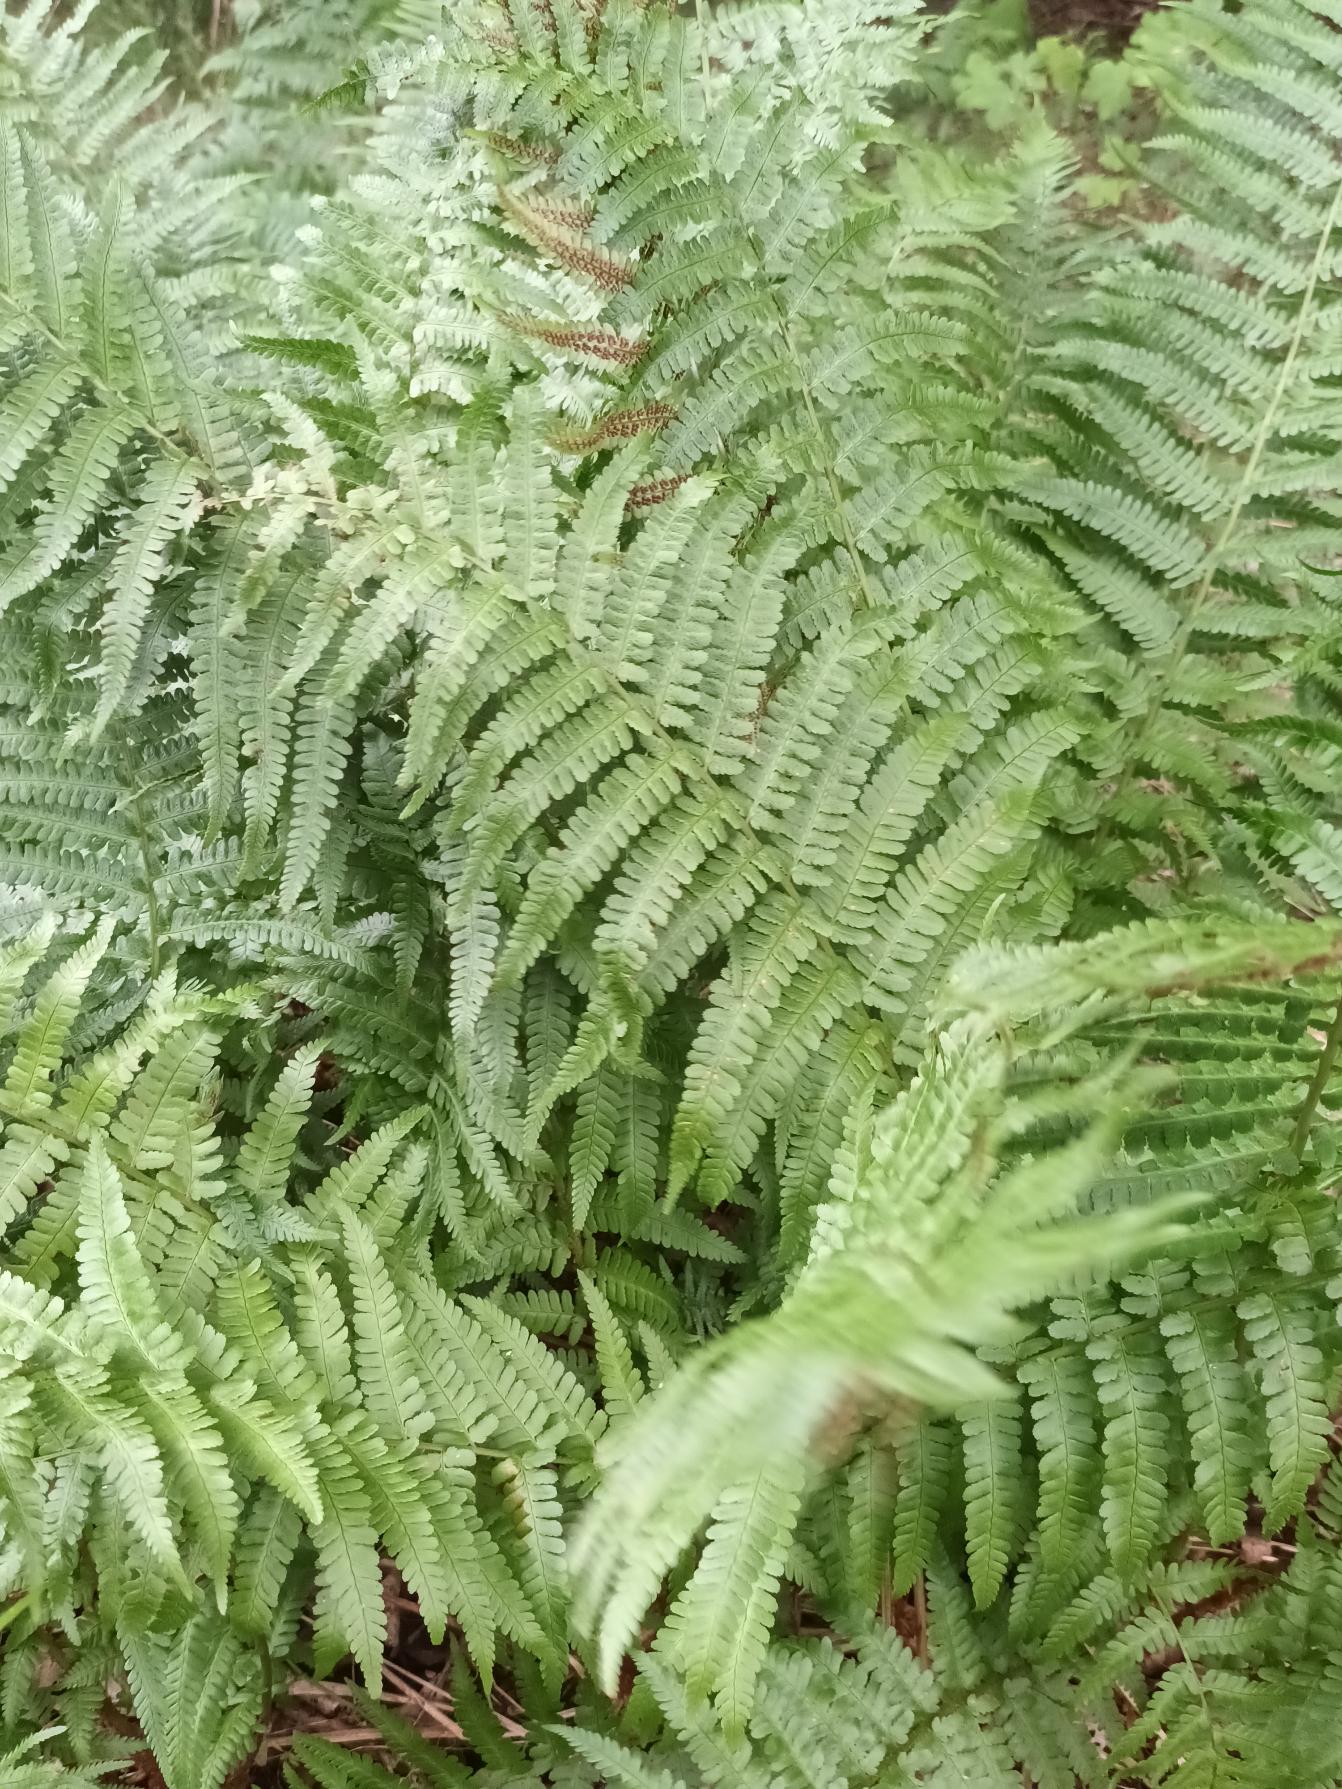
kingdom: Plantae
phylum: Tracheophyta
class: Polypodiopsida
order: Polypodiales
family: Dryopteridaceae
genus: Dryopteris
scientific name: Dryopteris filix-mas
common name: Almindelig mangeløv
